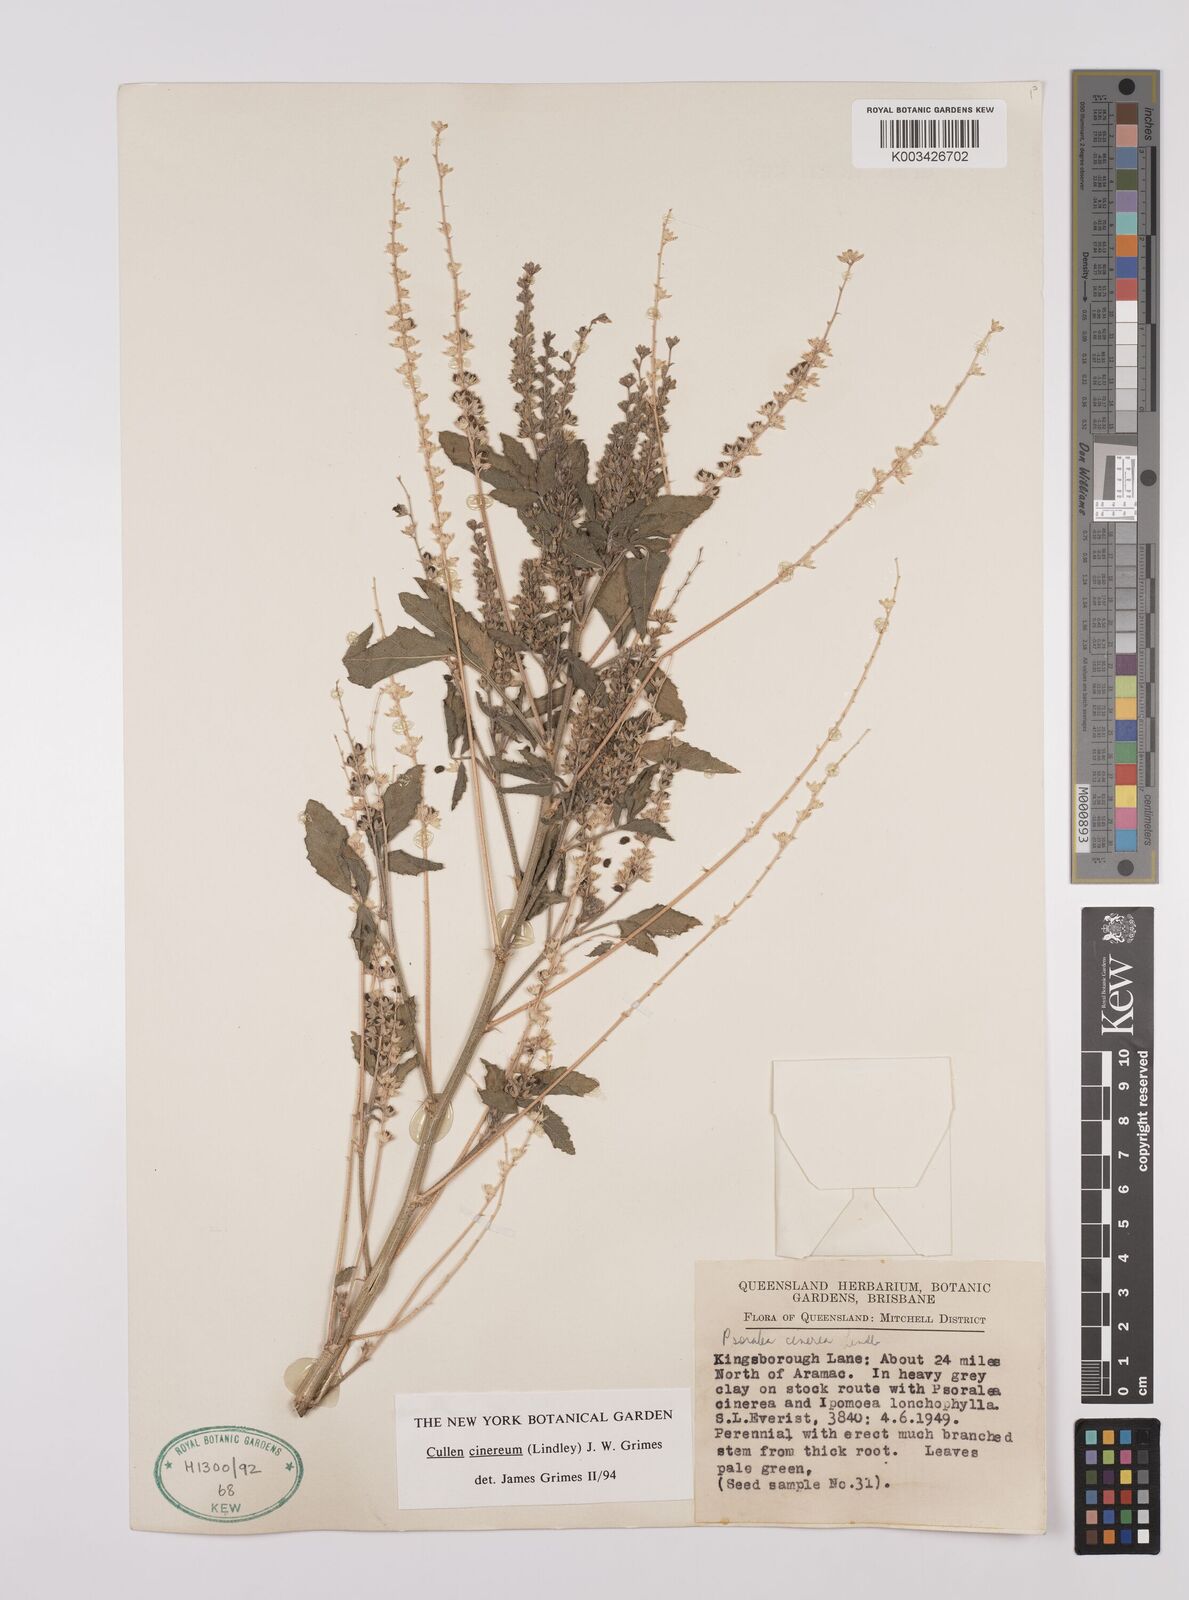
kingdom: Plantae
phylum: Tracheophyta
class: Magnoliopsida
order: Fabales
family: Fabaceae
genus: Cullen
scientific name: Cullen cinereum
